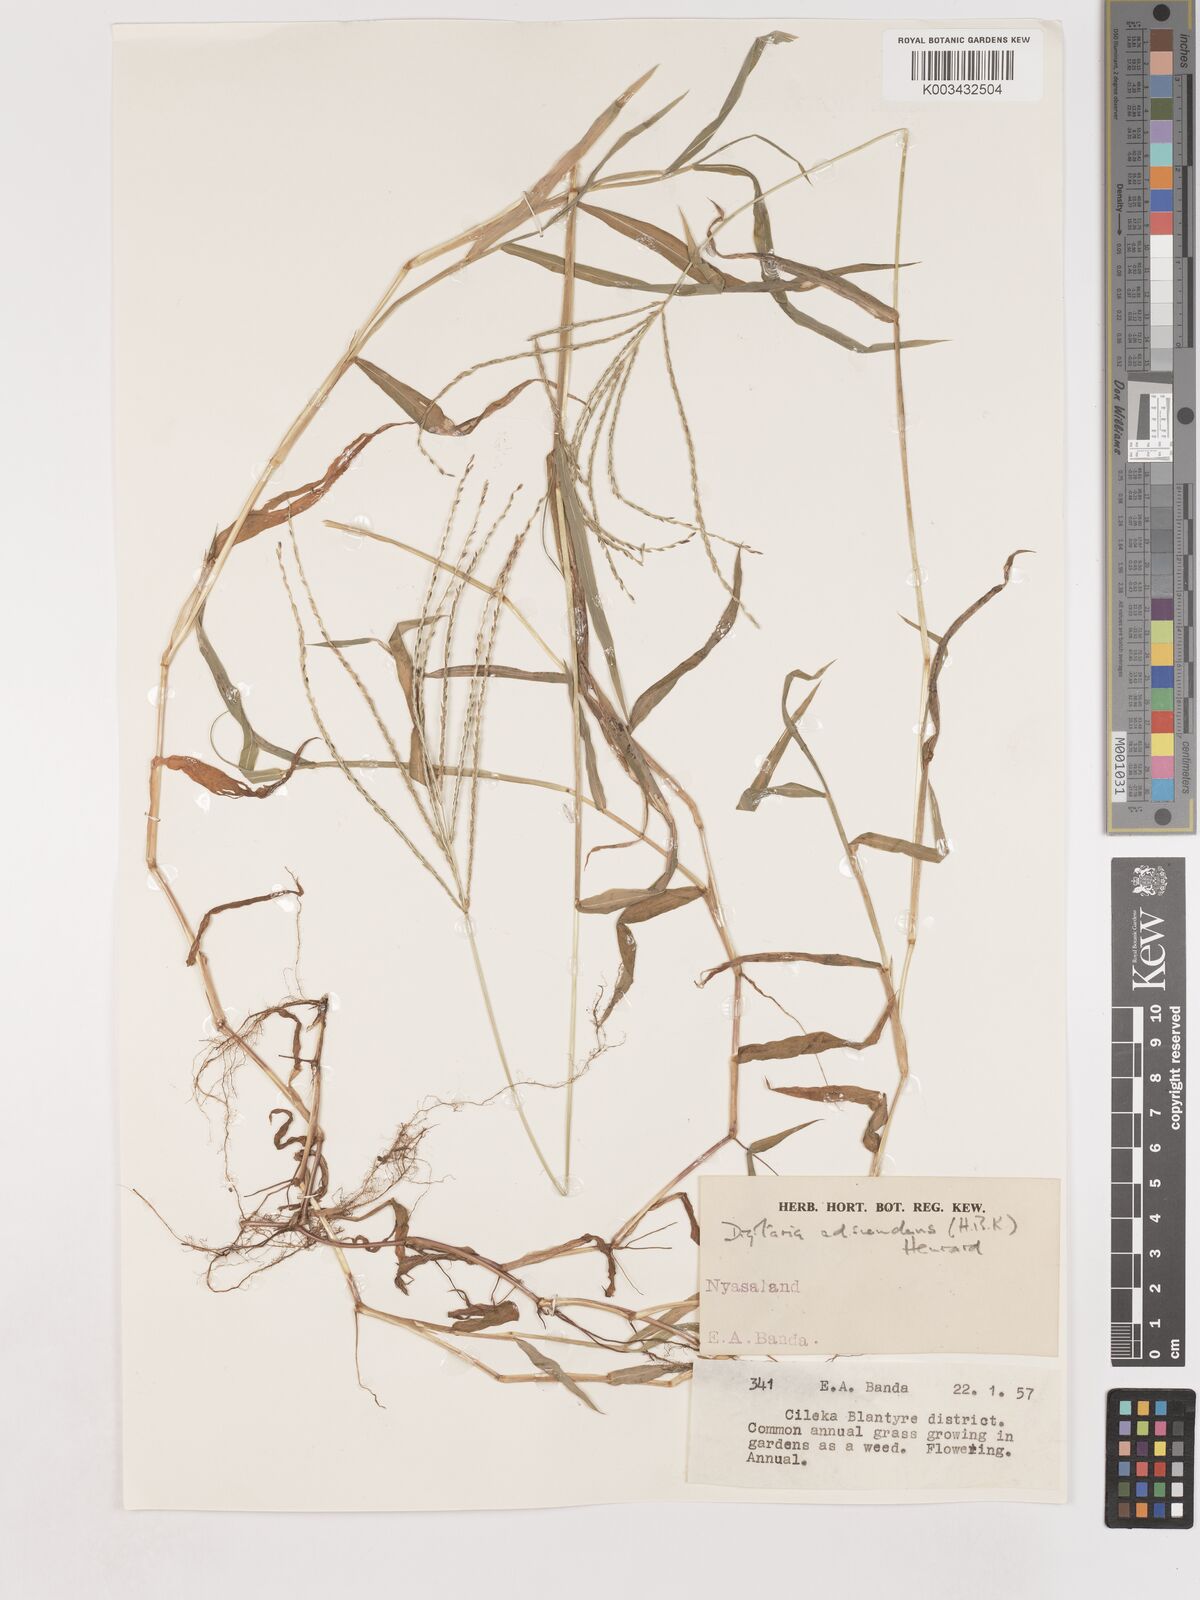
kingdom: Plantae
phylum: Tracheophyta
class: Liliopsida
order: Poales
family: Poaceae
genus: Digitaria
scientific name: Digitaria sanguinalis
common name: Hairy crabgrass
